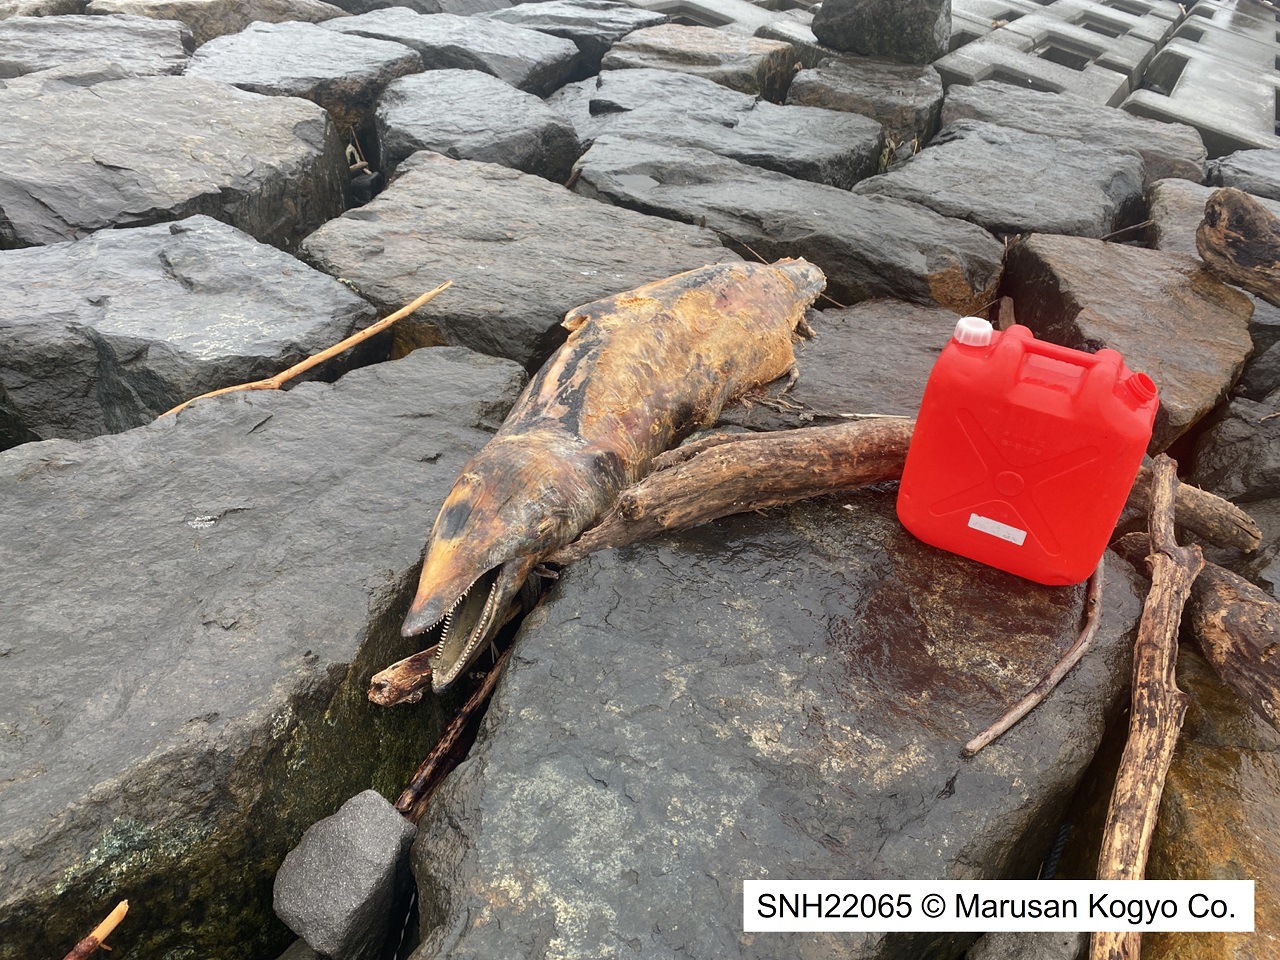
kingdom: Animalia
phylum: Chordata
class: Mammalia
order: Cetacea
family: Delphinidae
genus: Lagenorhynchus
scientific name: Lagenorhynchus obliquidens
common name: Pacific white-sided dolphin
